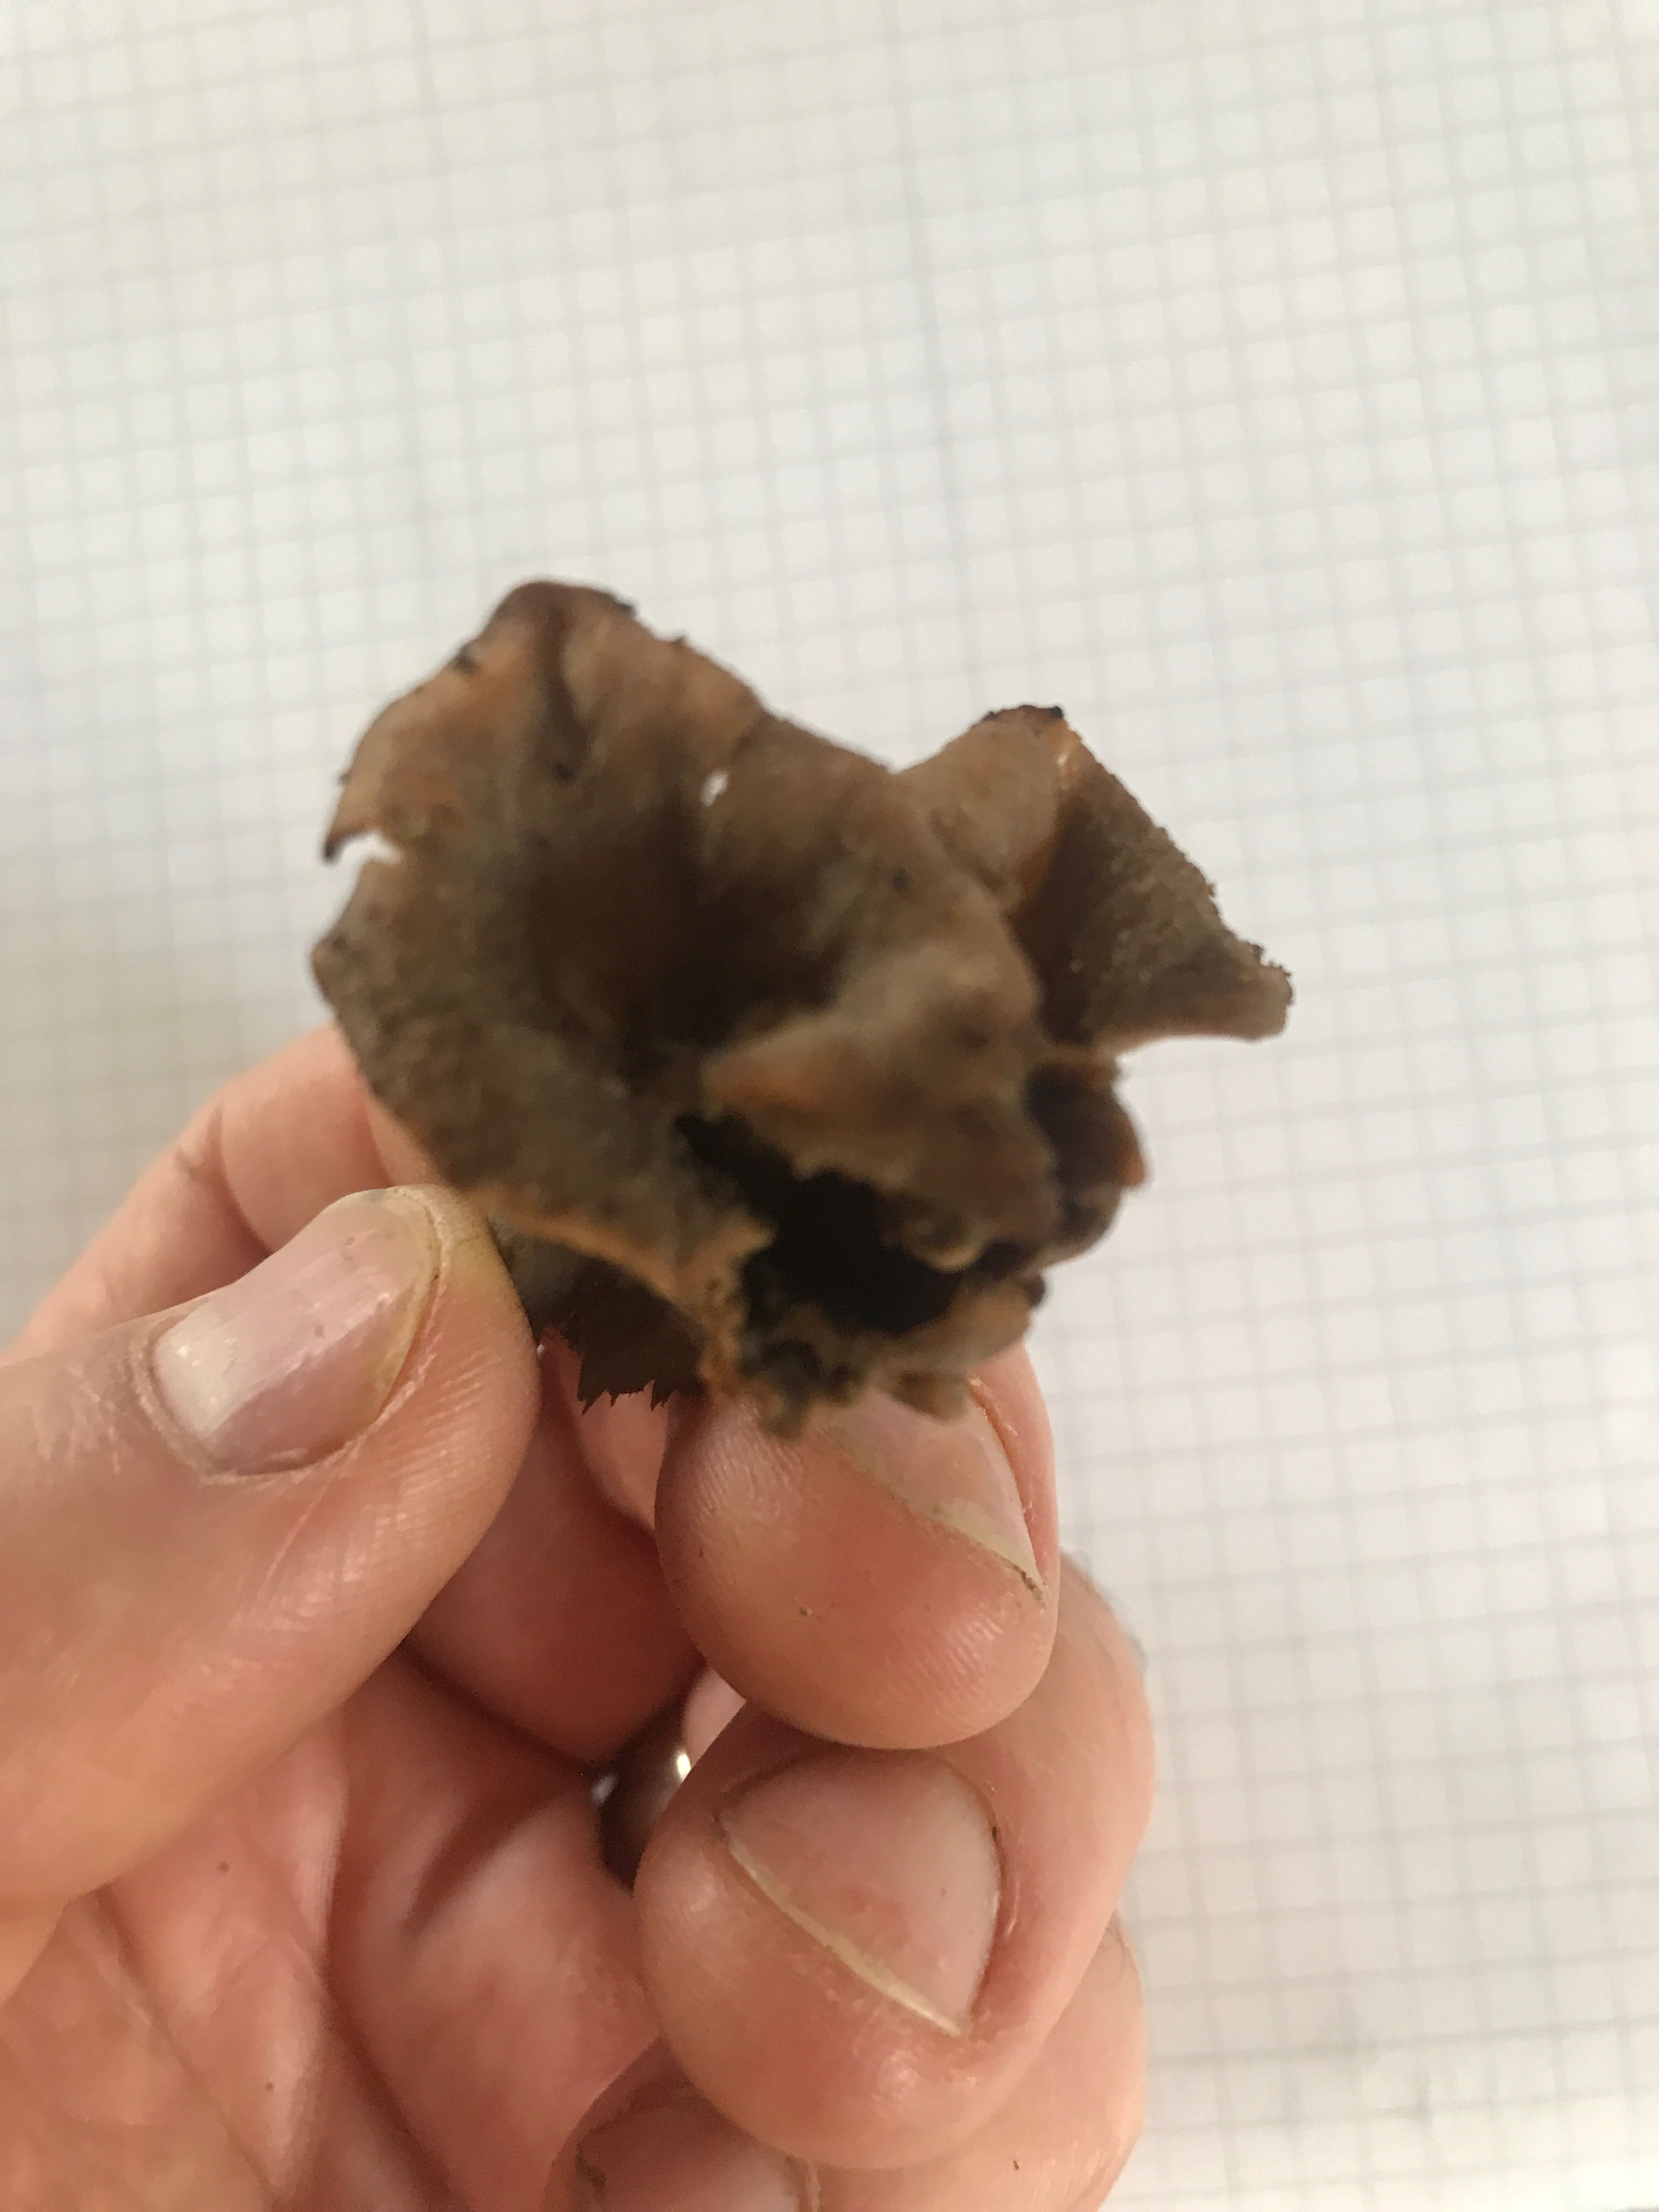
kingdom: Fungi
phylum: Basidiomycota
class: Agaricomycetes
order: Cantharellales
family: Hydnaceae
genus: Craterellus
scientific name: Craterellus cornucopioides
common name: trompetsvamp
